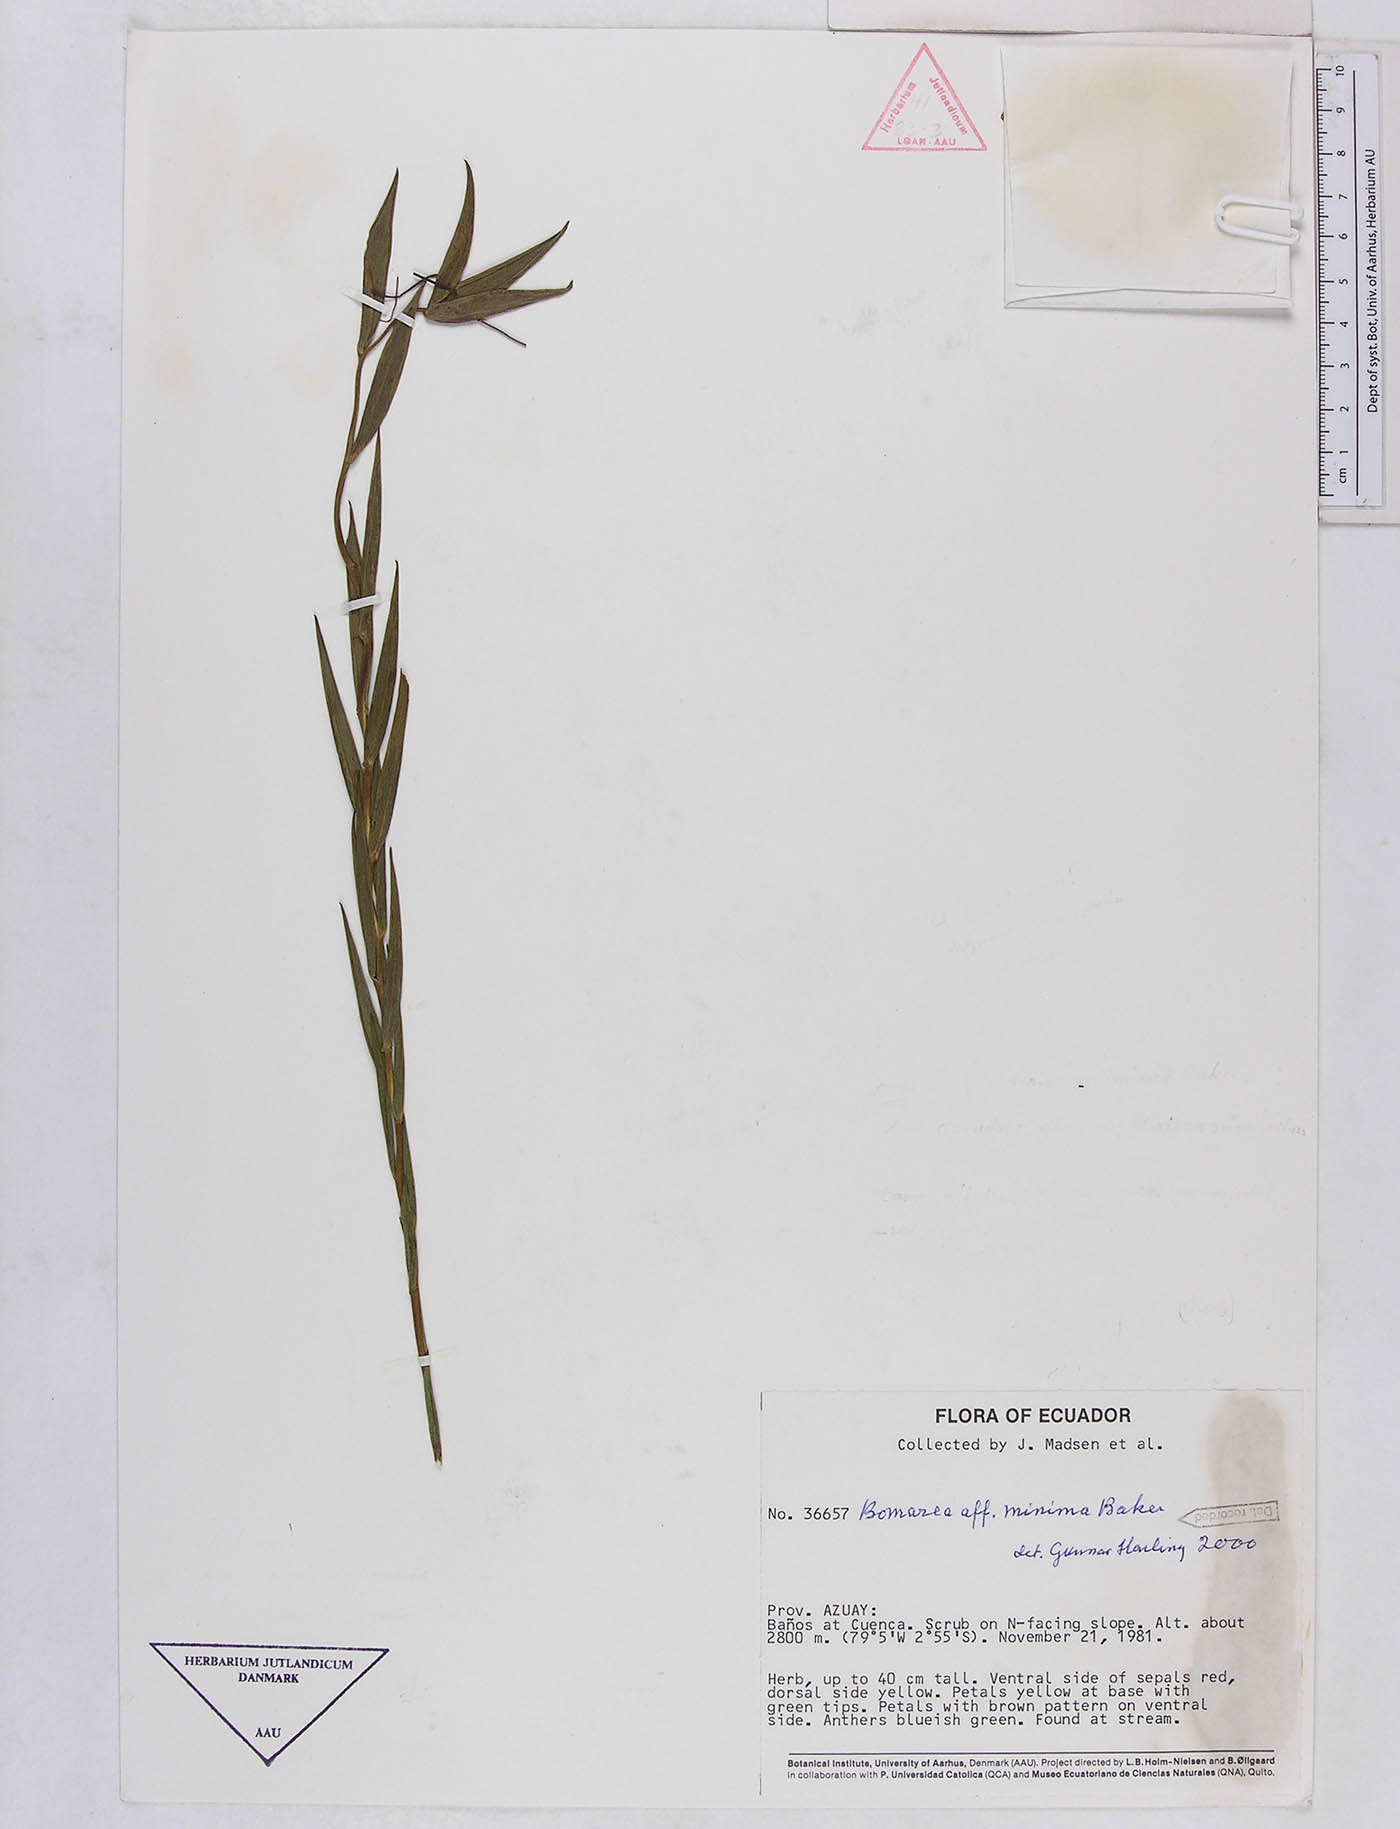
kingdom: Plantae
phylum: Tracheophyta
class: Liliopsida
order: Liliales
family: Alstroemeriaceae
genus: Bomarea
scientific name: Bomarea pauciflora
